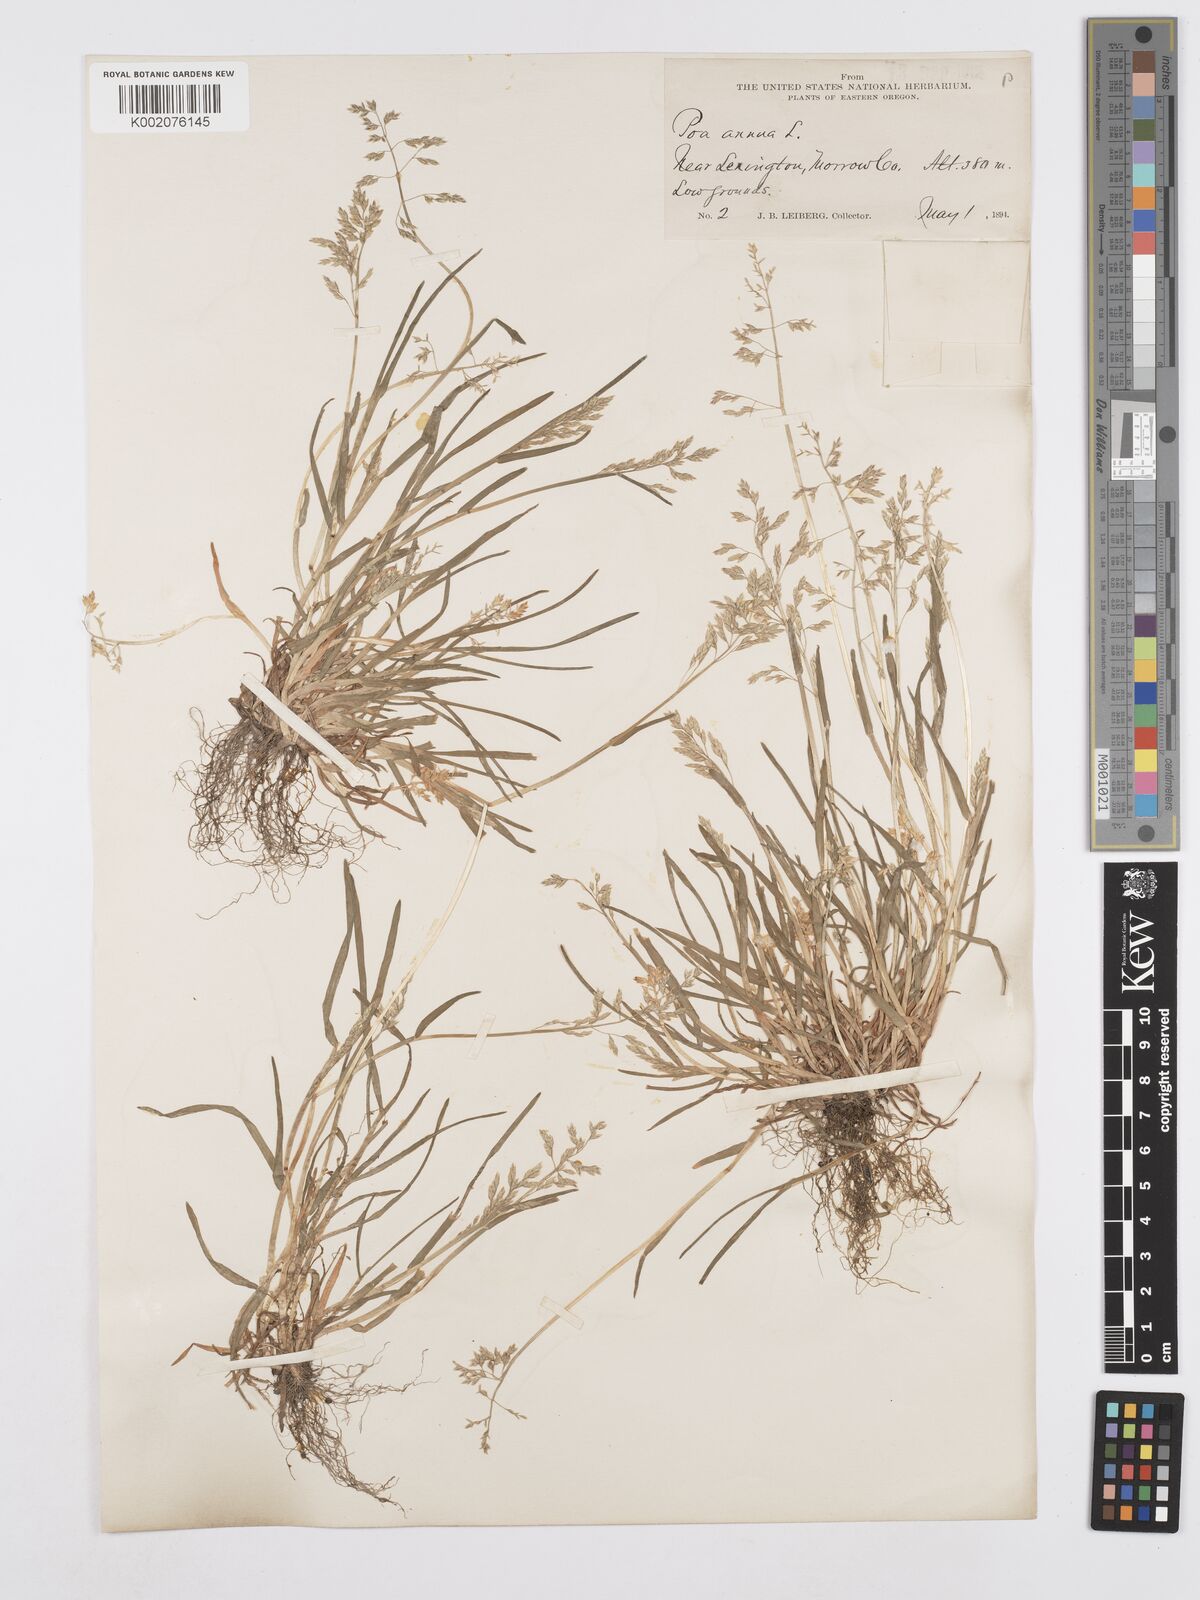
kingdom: Plantae
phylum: Tracheophyta
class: Liliopsida
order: Poales
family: Poaceae
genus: Poa
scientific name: Poa annua
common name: Annual bluegrass
